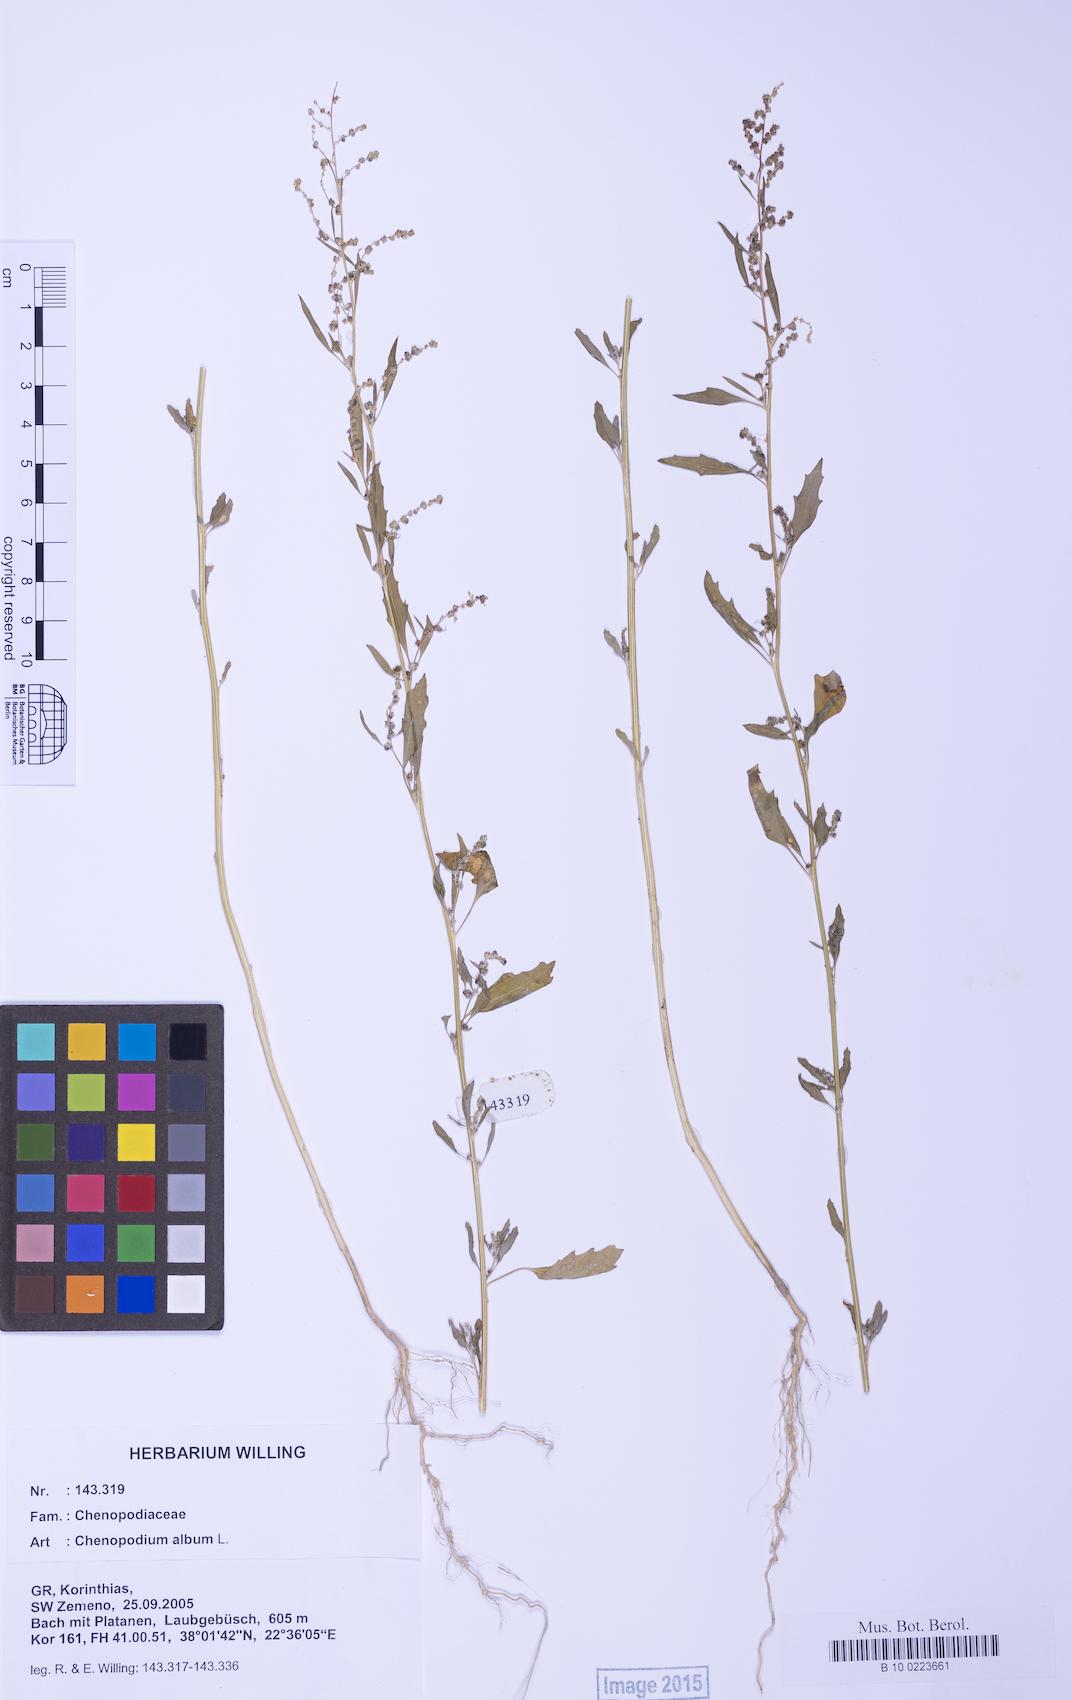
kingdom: Plantae
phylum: Tracheophyta
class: Magnoliopsida
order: Caryophyllales
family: Amaranthaceae
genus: Chenopodium
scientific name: Chenopodium album
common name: Fat-hen
